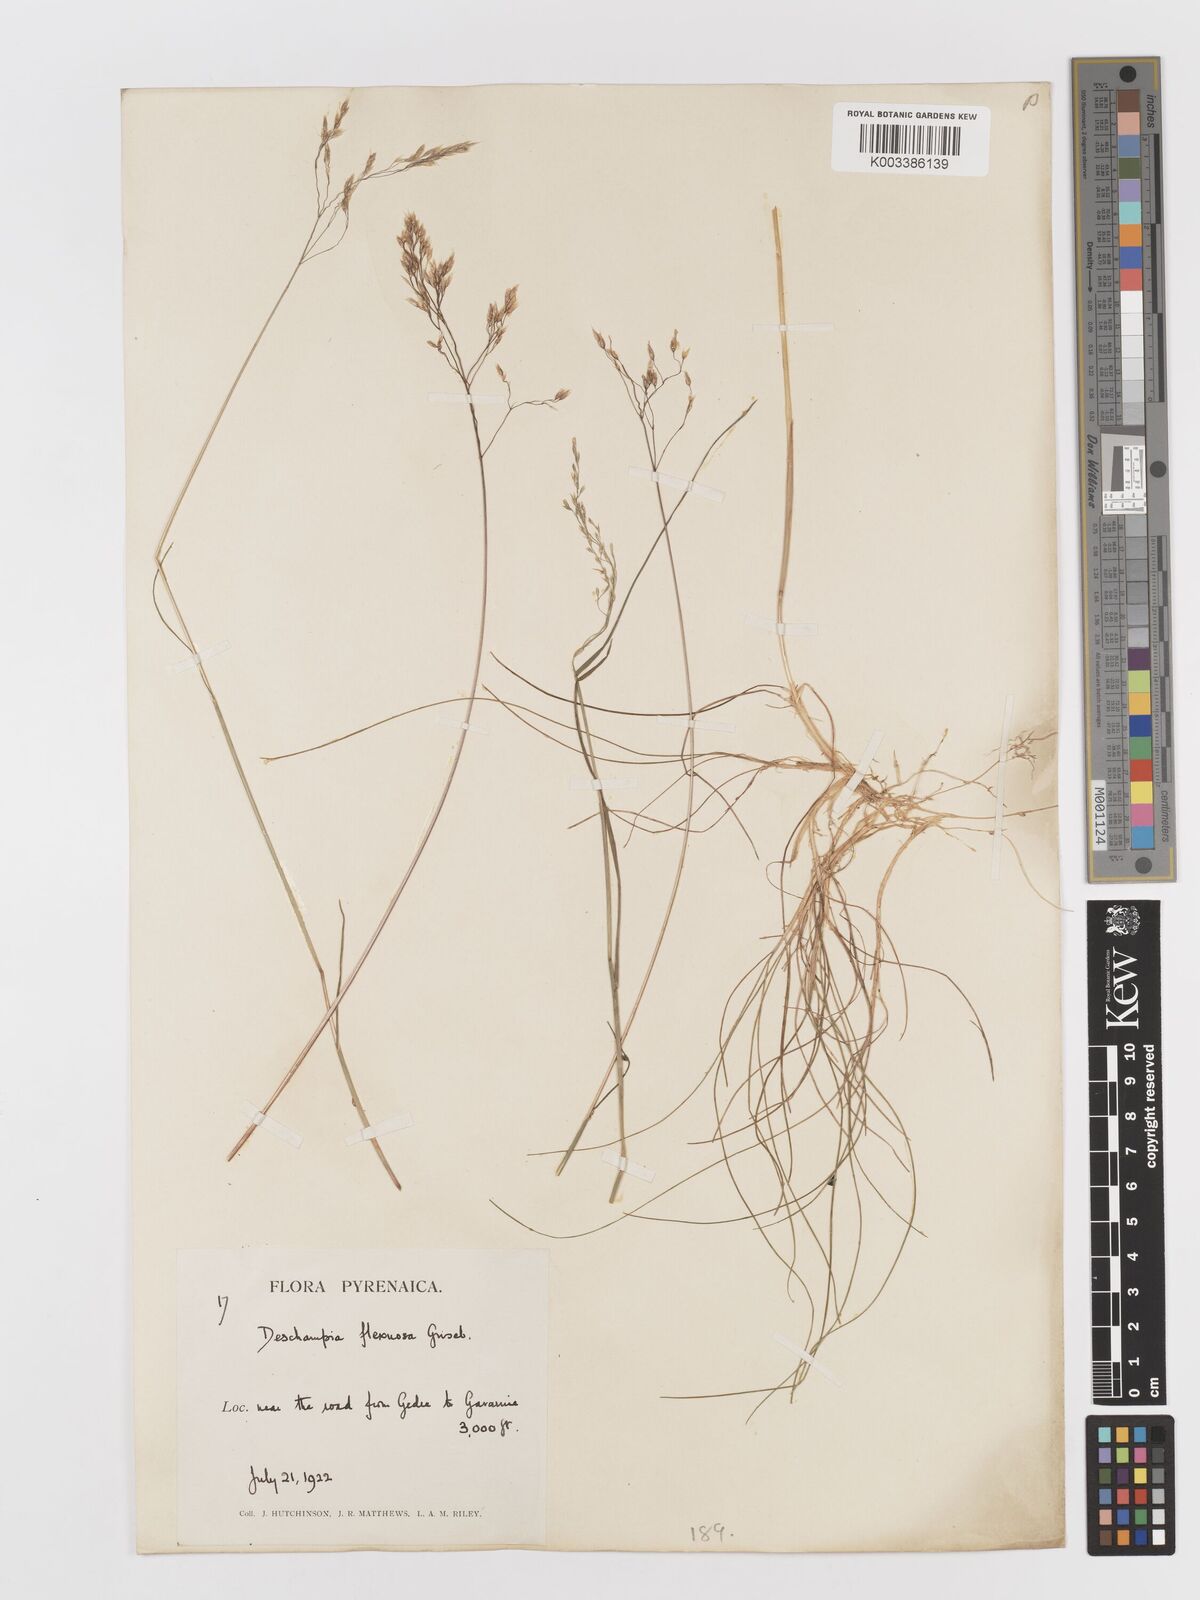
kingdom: Plantae
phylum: Tracheophyta
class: Liliopsida
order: Poales
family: Poaceae
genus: Avenella
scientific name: Avenella flexuosa
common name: Wavy hairgrass
